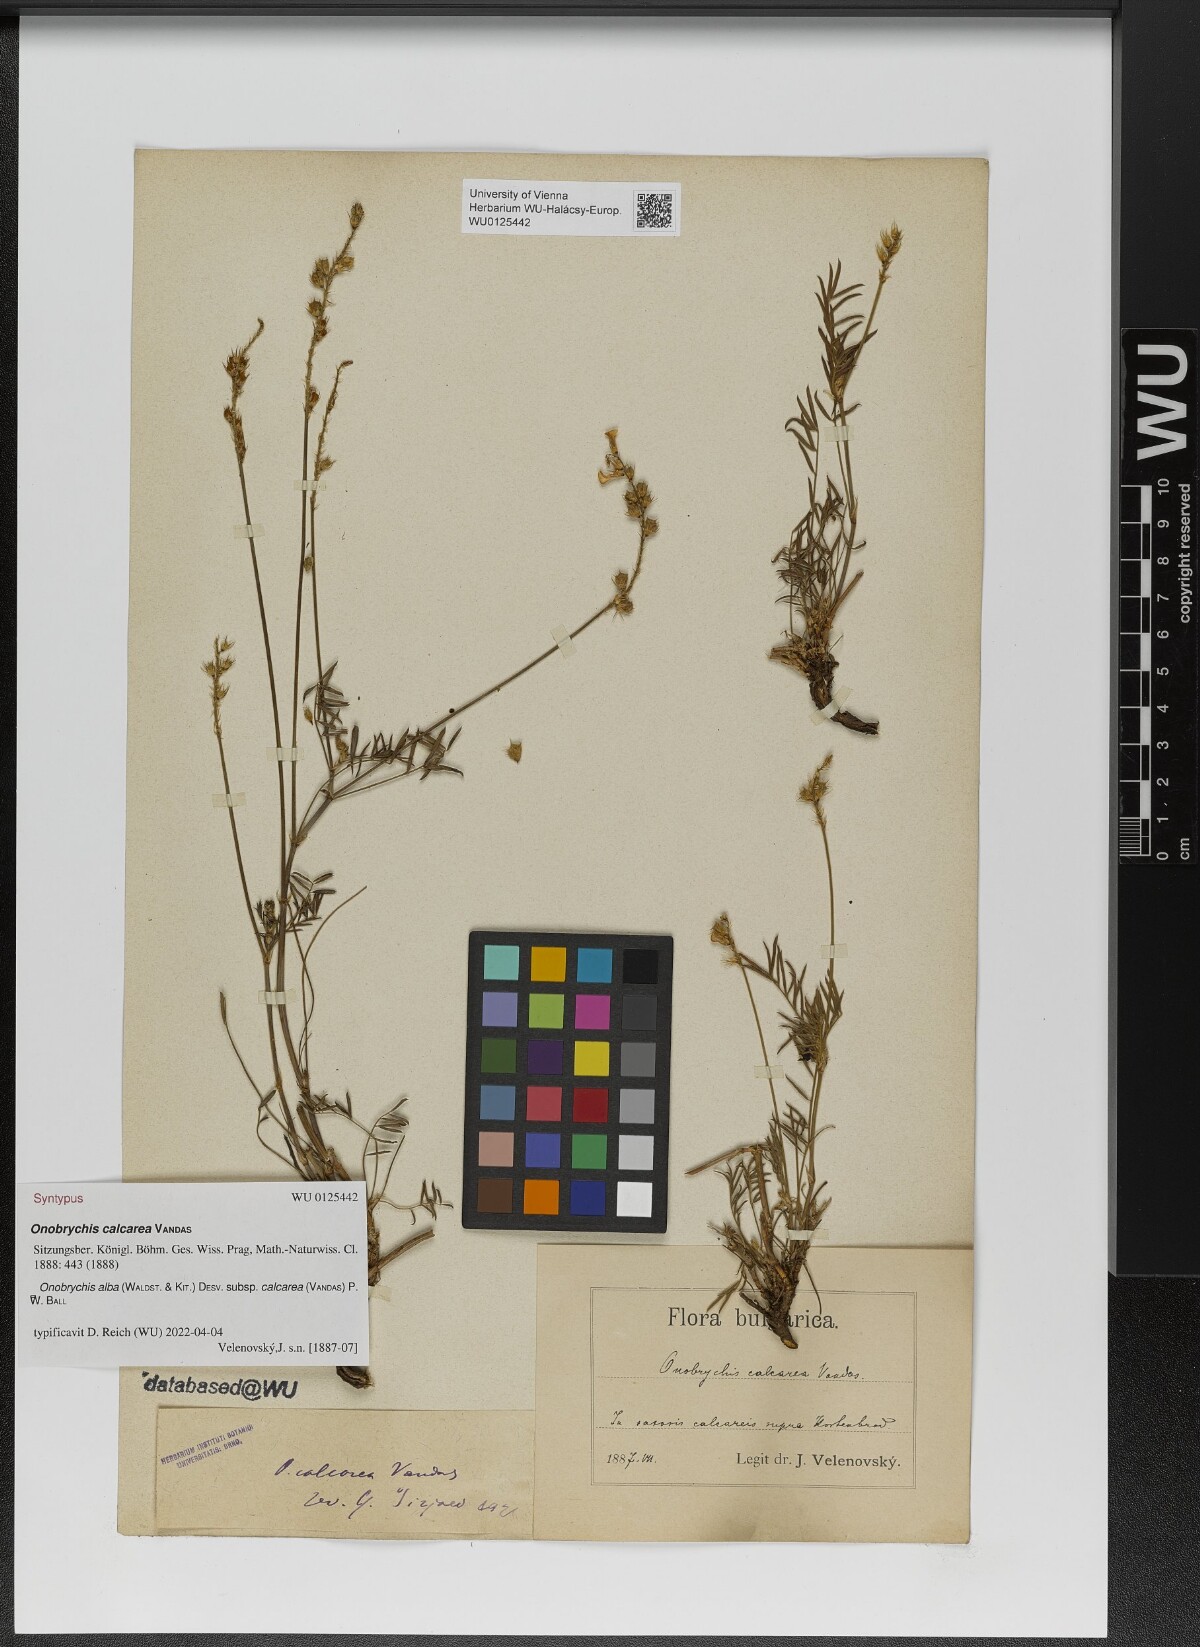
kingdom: Plantae
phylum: Tracheophyta
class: Magnoliopsida
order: Fabales
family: Fabaceae
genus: Onobrychis
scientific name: Onobrychis alba
